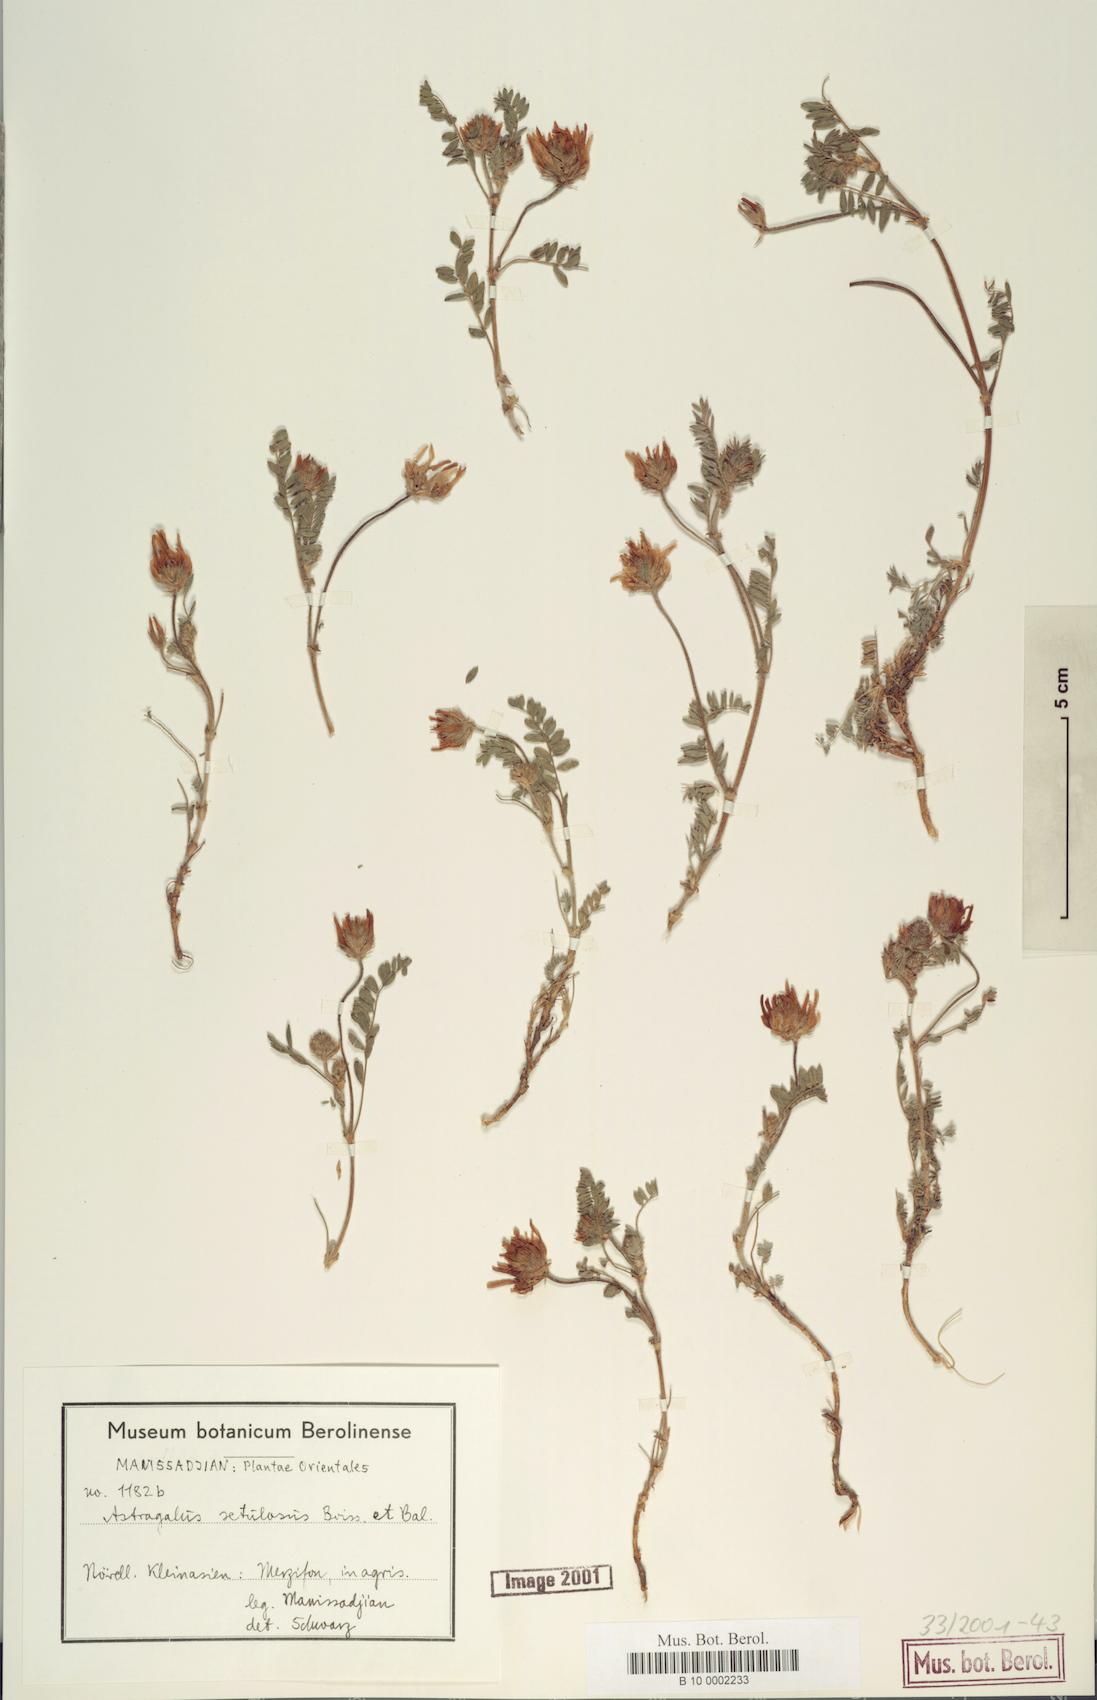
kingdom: Plantae
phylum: Tracheophyta
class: Magnoliopsida
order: Fabales
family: Fabaceae
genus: Astragalus
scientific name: Astragalus setulosus
